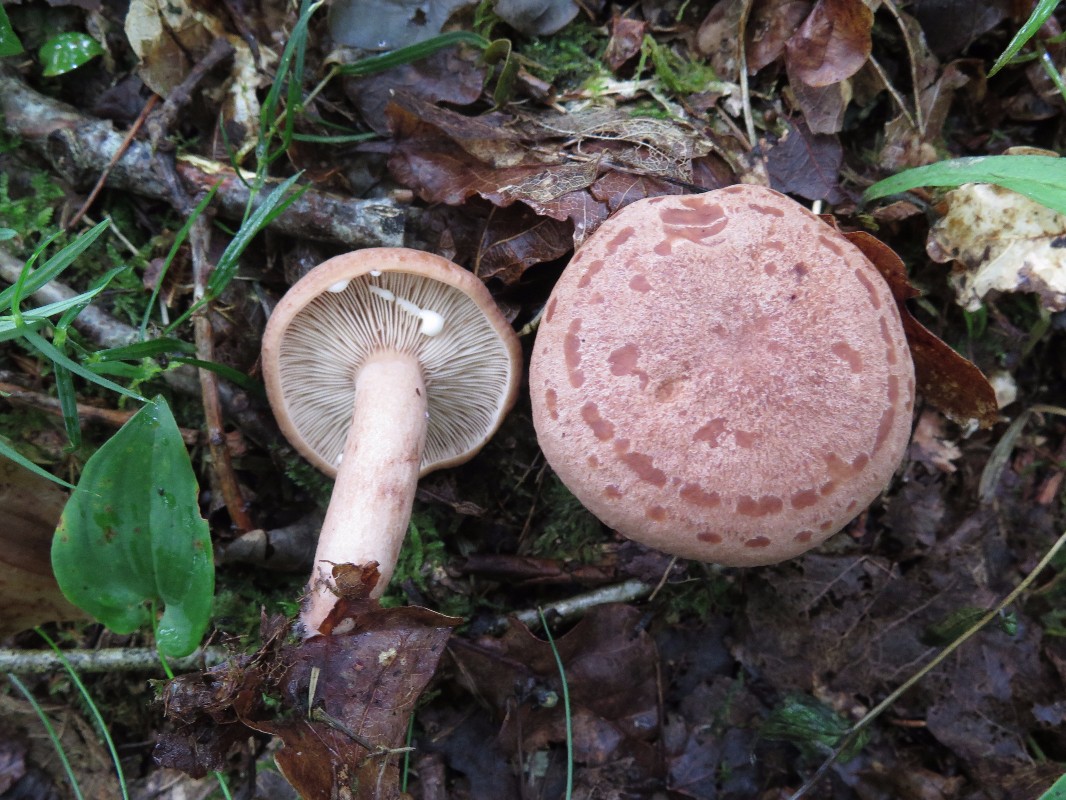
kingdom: Fungi
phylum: Basidiomycota
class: Agaricomycetes
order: Russulales
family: Russulaceae
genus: Lactarius
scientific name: Lactarius quietus
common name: ege-mælkehat
